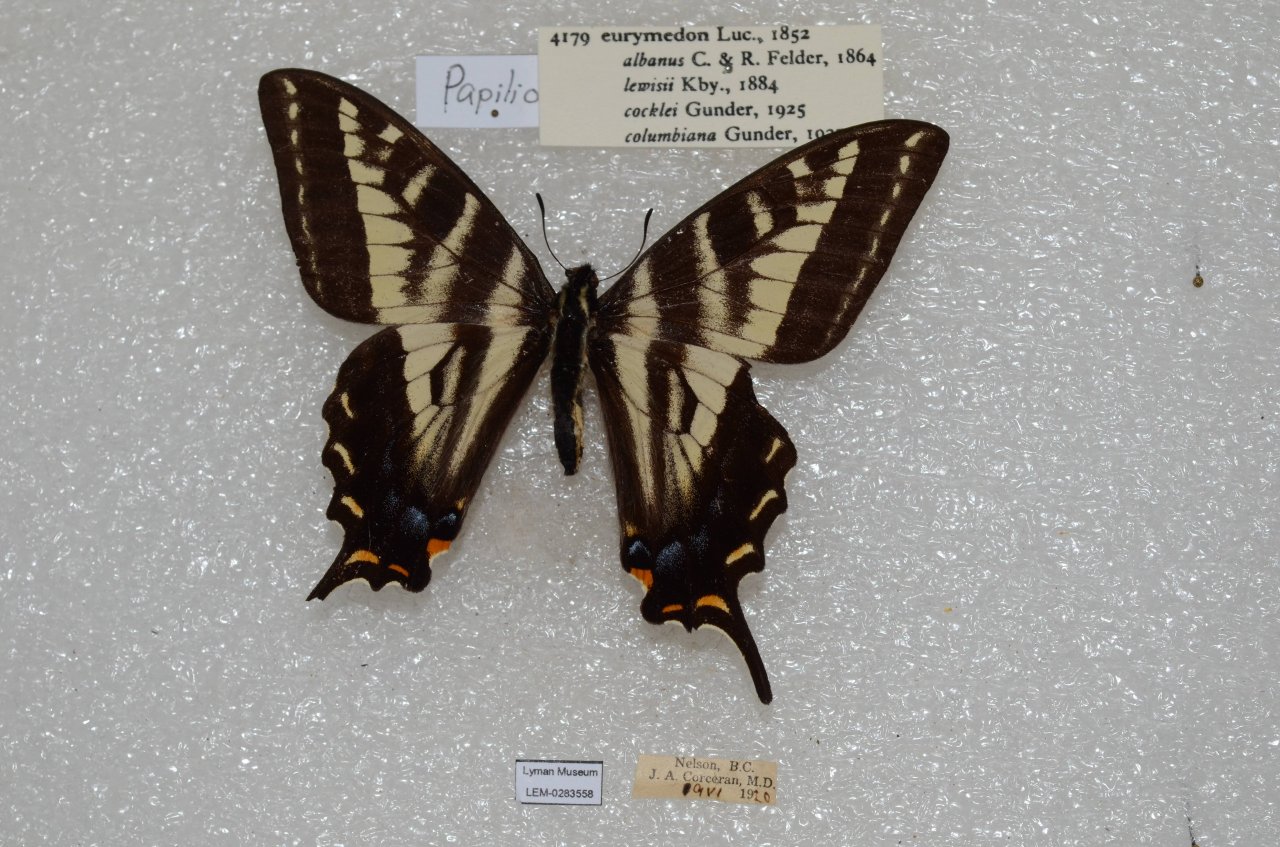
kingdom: Animalia
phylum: Arthropoda
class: Insecta
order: Lepidoptera
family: Papilionidae
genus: Pterourus
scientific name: Pterourus eurymedon
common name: Pale Swallowtail
